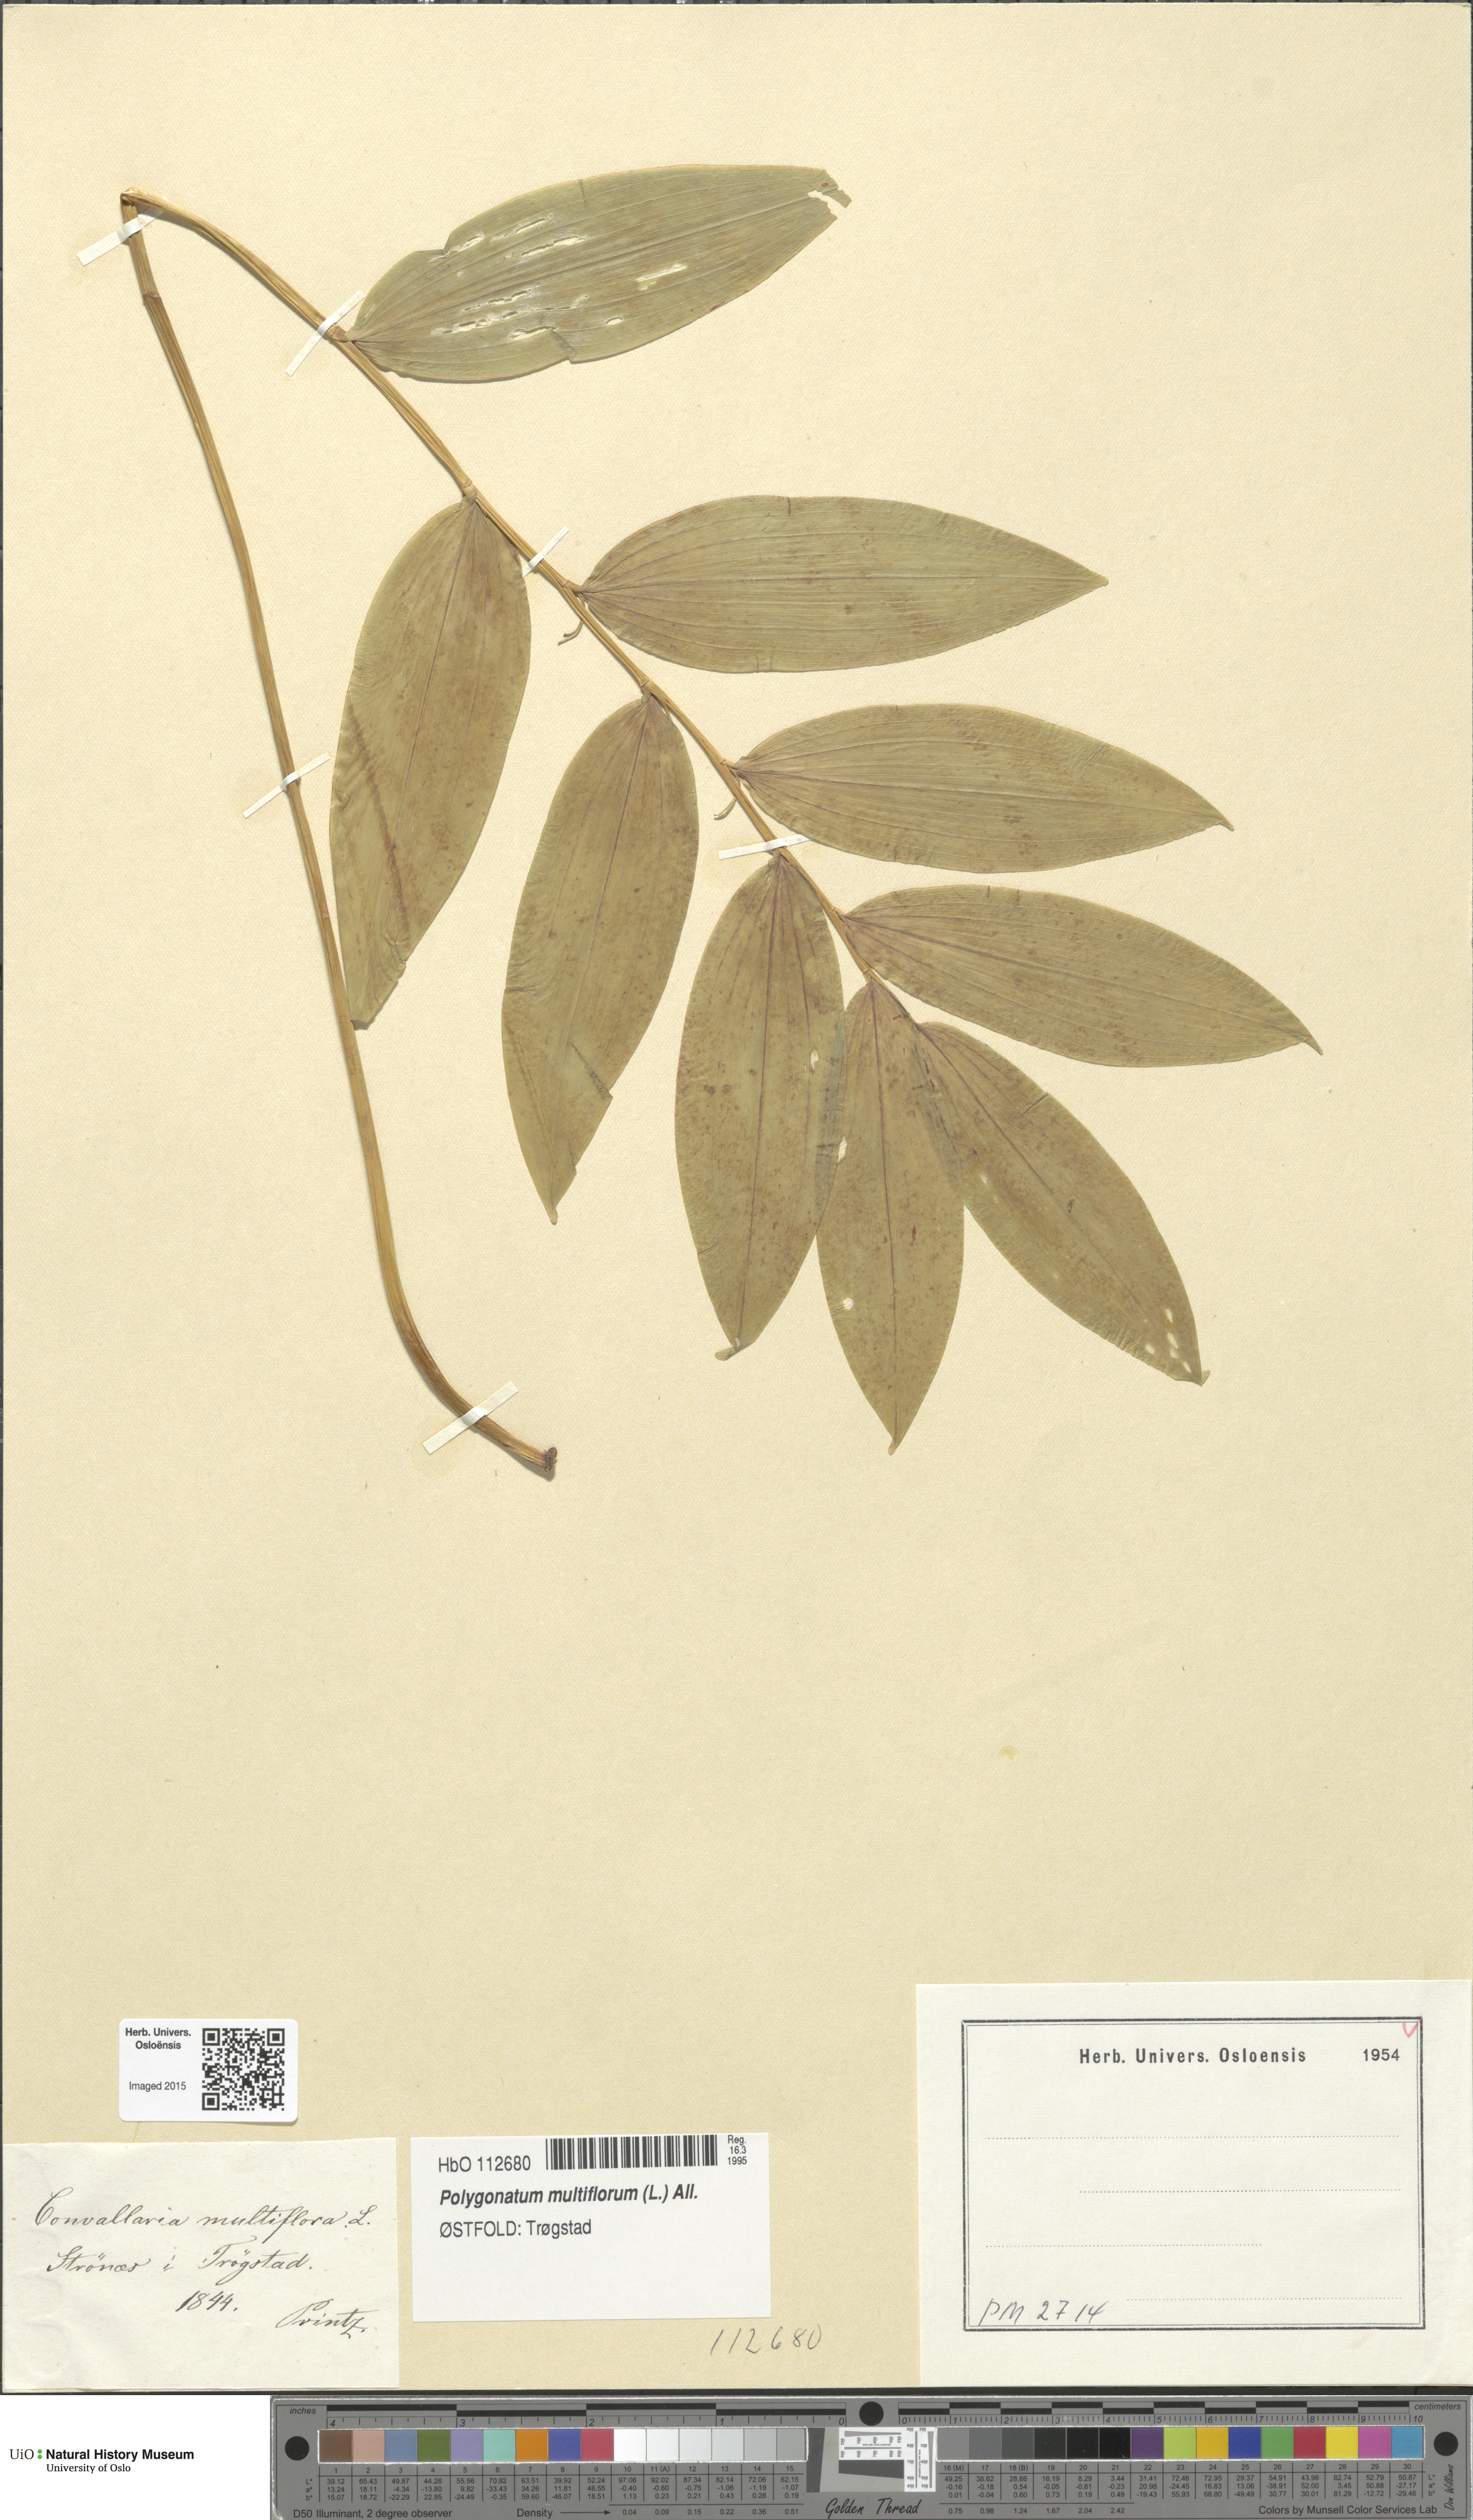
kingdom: Plantae
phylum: Tracheophyta
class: Liliopsida
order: Asparagales
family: Asparagaceae
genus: Polygonatum
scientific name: Polygonatum multiflorum
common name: Solomon's-seal
